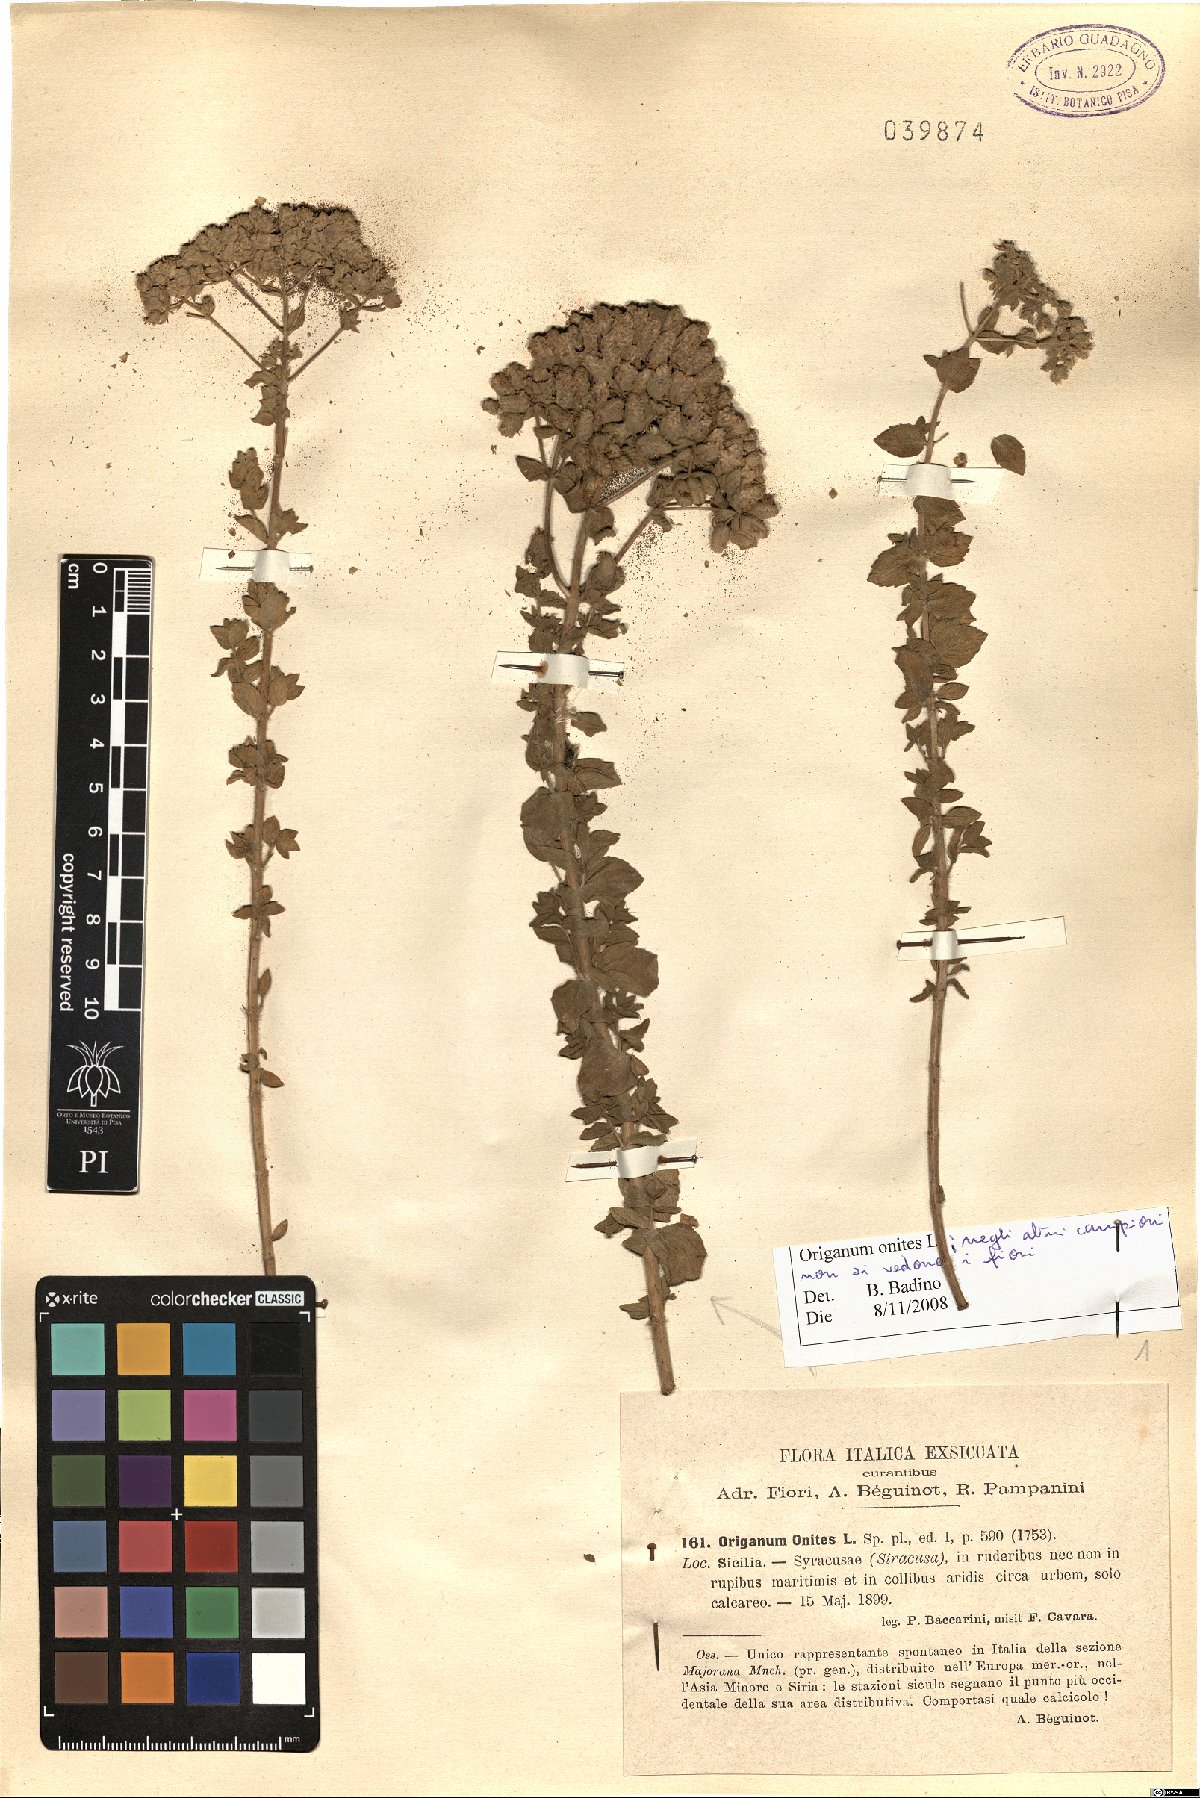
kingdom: Plantae
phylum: Tracheophyta
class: Magnoliopsida
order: Lamiales
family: Lamiaceae
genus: Origanum
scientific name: Origanum onites
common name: Turkish oregano
